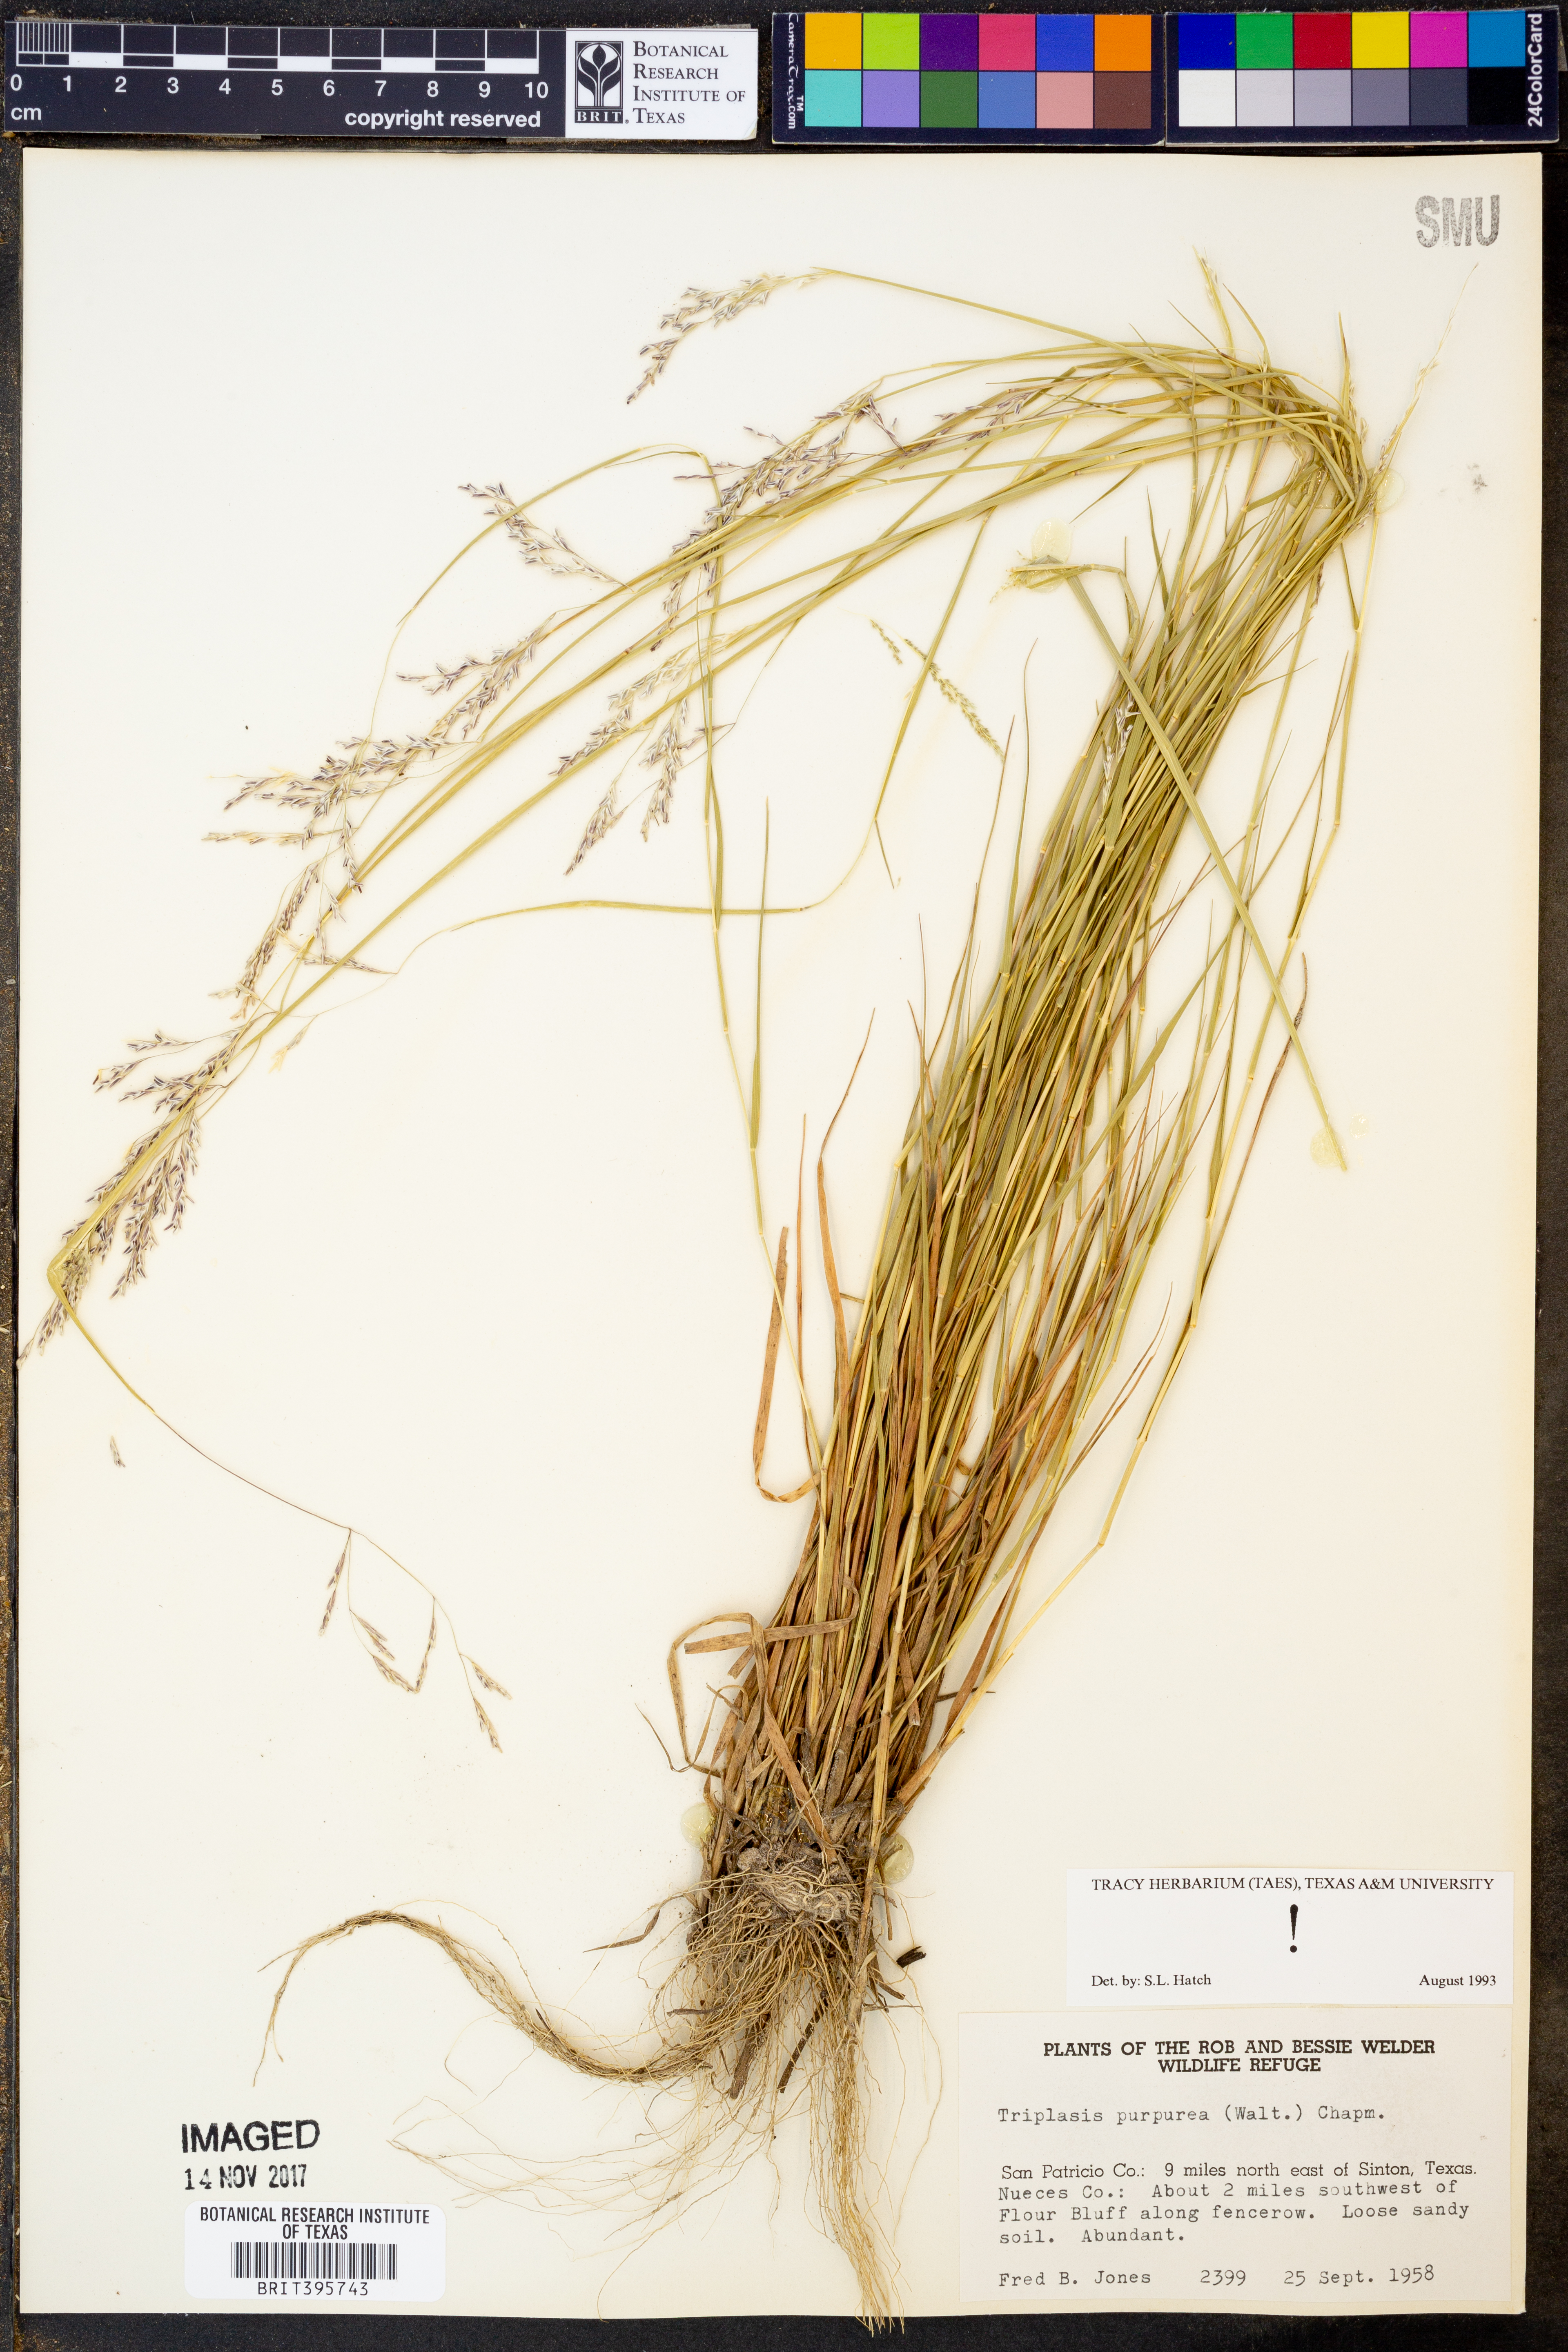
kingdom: Plantae
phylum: Tracheophyta
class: Liliopsida
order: Poales
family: Poaceae
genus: Triplasis
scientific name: Triplasis purpurea
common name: Purple sand grass
